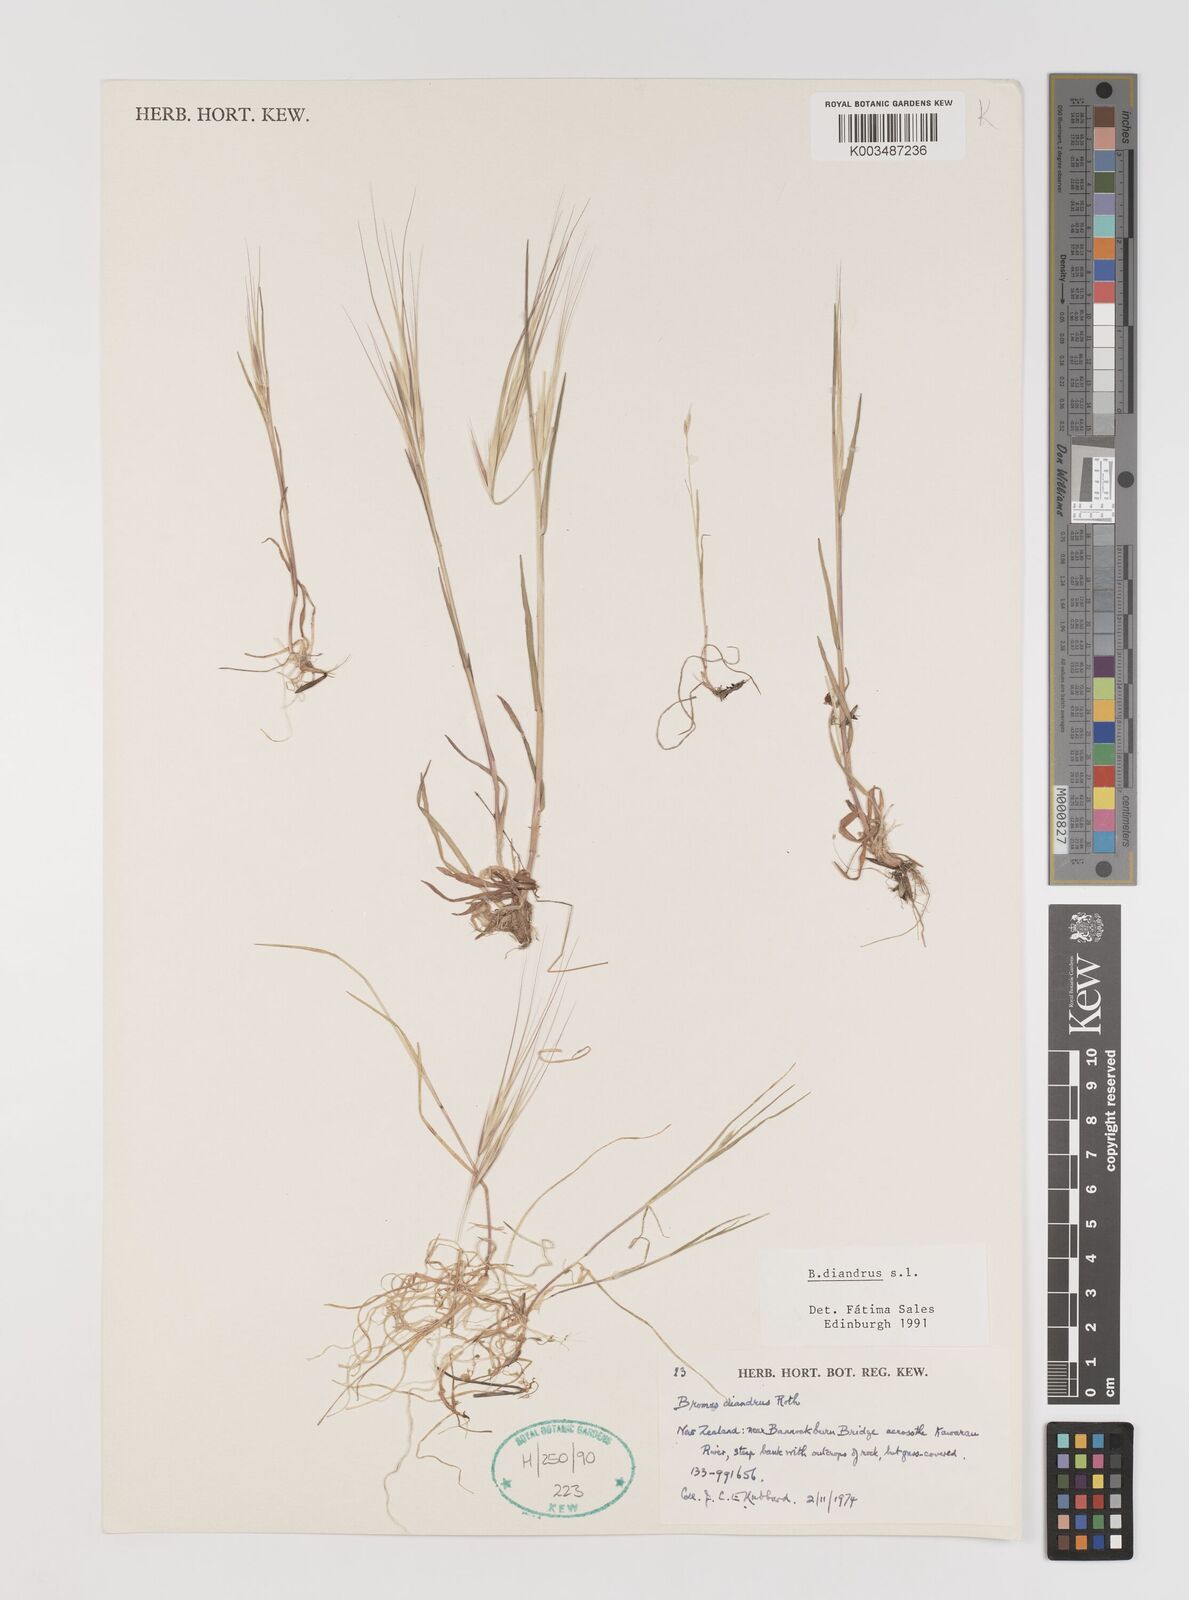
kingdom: Plantae
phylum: Tracheophyta
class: Liliopsida
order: Poales
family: Poaceae
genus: Bromus
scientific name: Bromus diandrus
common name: Ripgut brome
